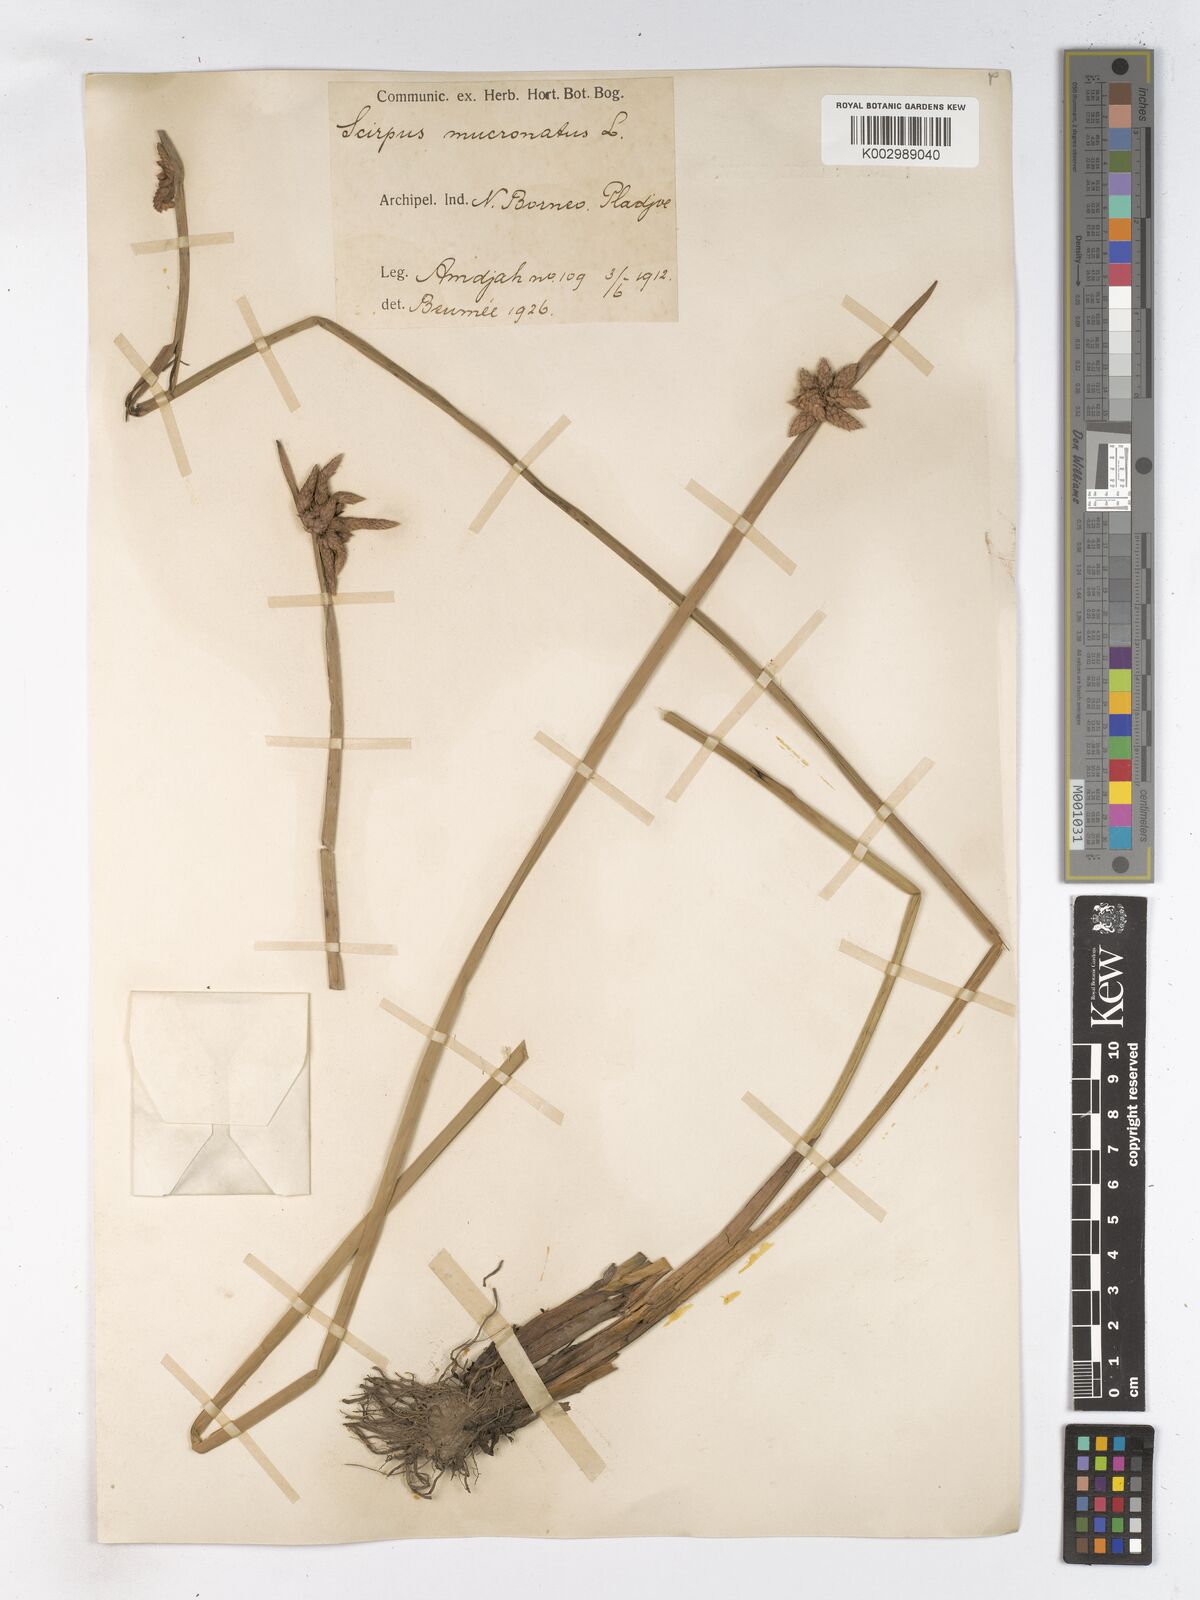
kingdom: Plantae
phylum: Tracheophyta
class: Liliopsida
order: Poales
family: Cyperaceae
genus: Schoenoplectiella
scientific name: Schoenoplectiella mucronata
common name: Bog bulrush
